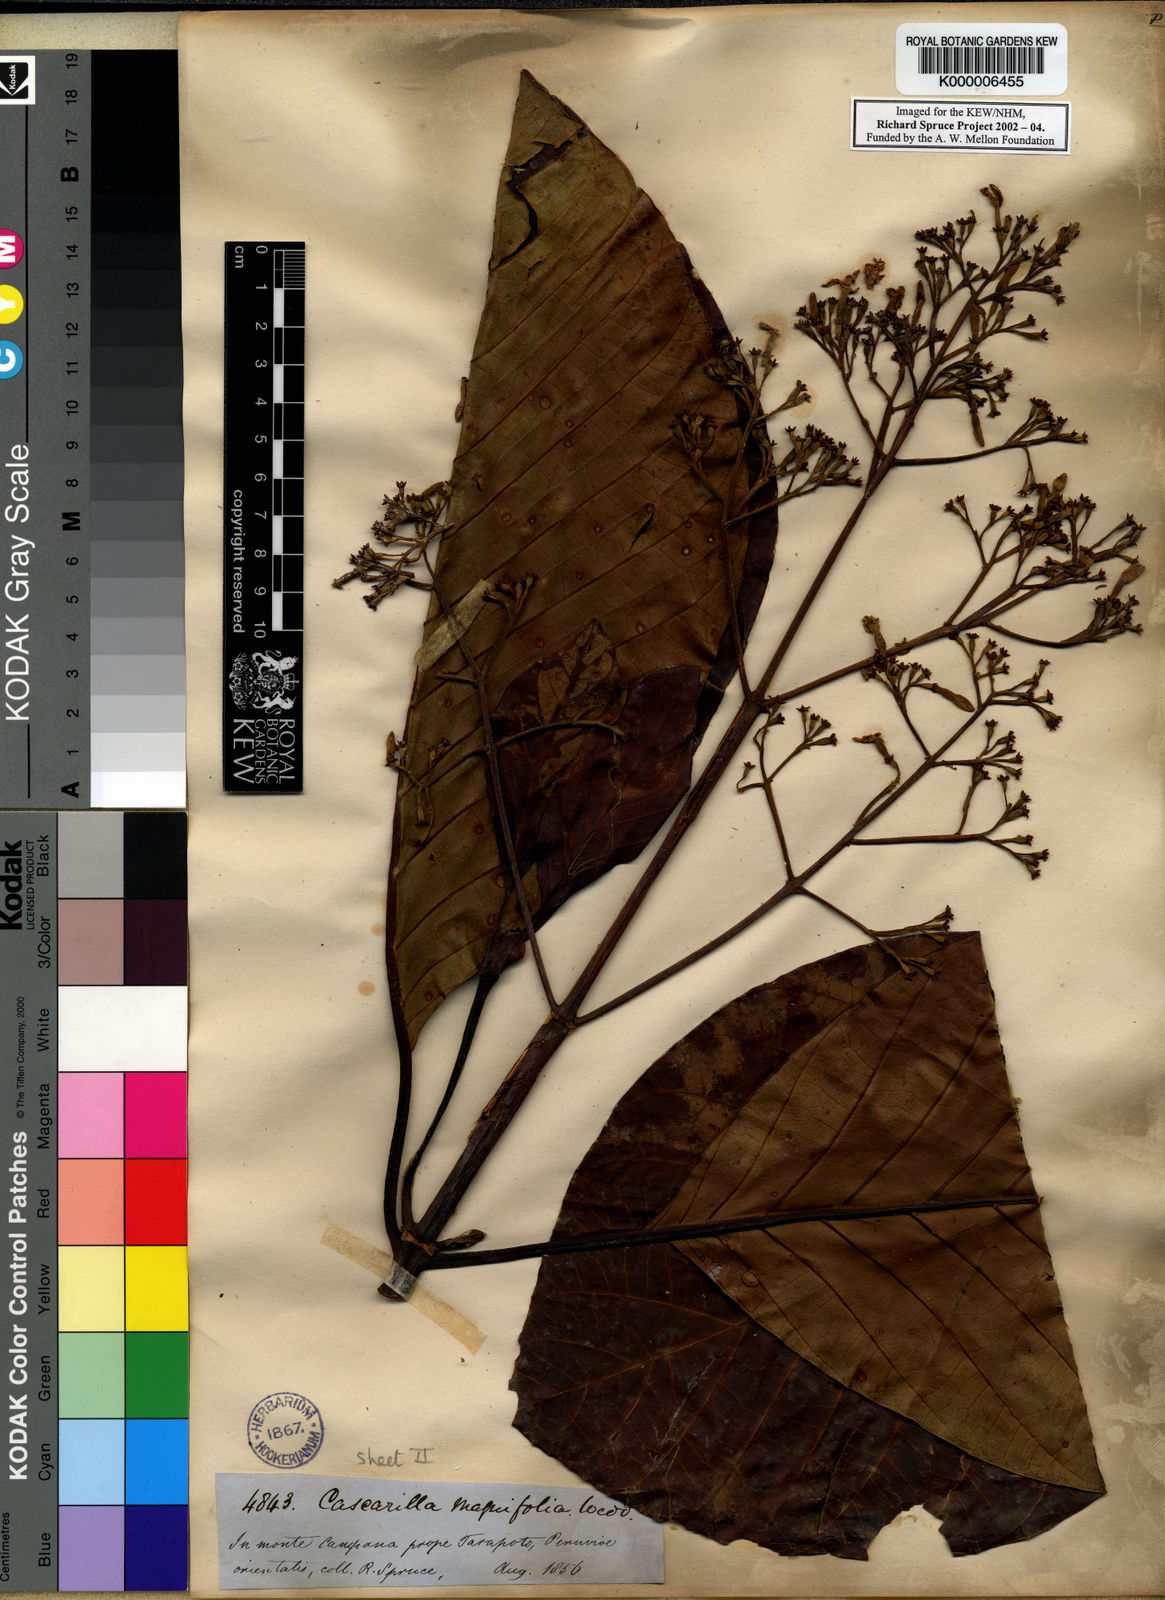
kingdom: Plantae
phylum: Tracheophyta
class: Magnoliopsida
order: Gentianales
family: Rubiaceae
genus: Ladenbergia
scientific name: Ladenbergia oblongifolia
